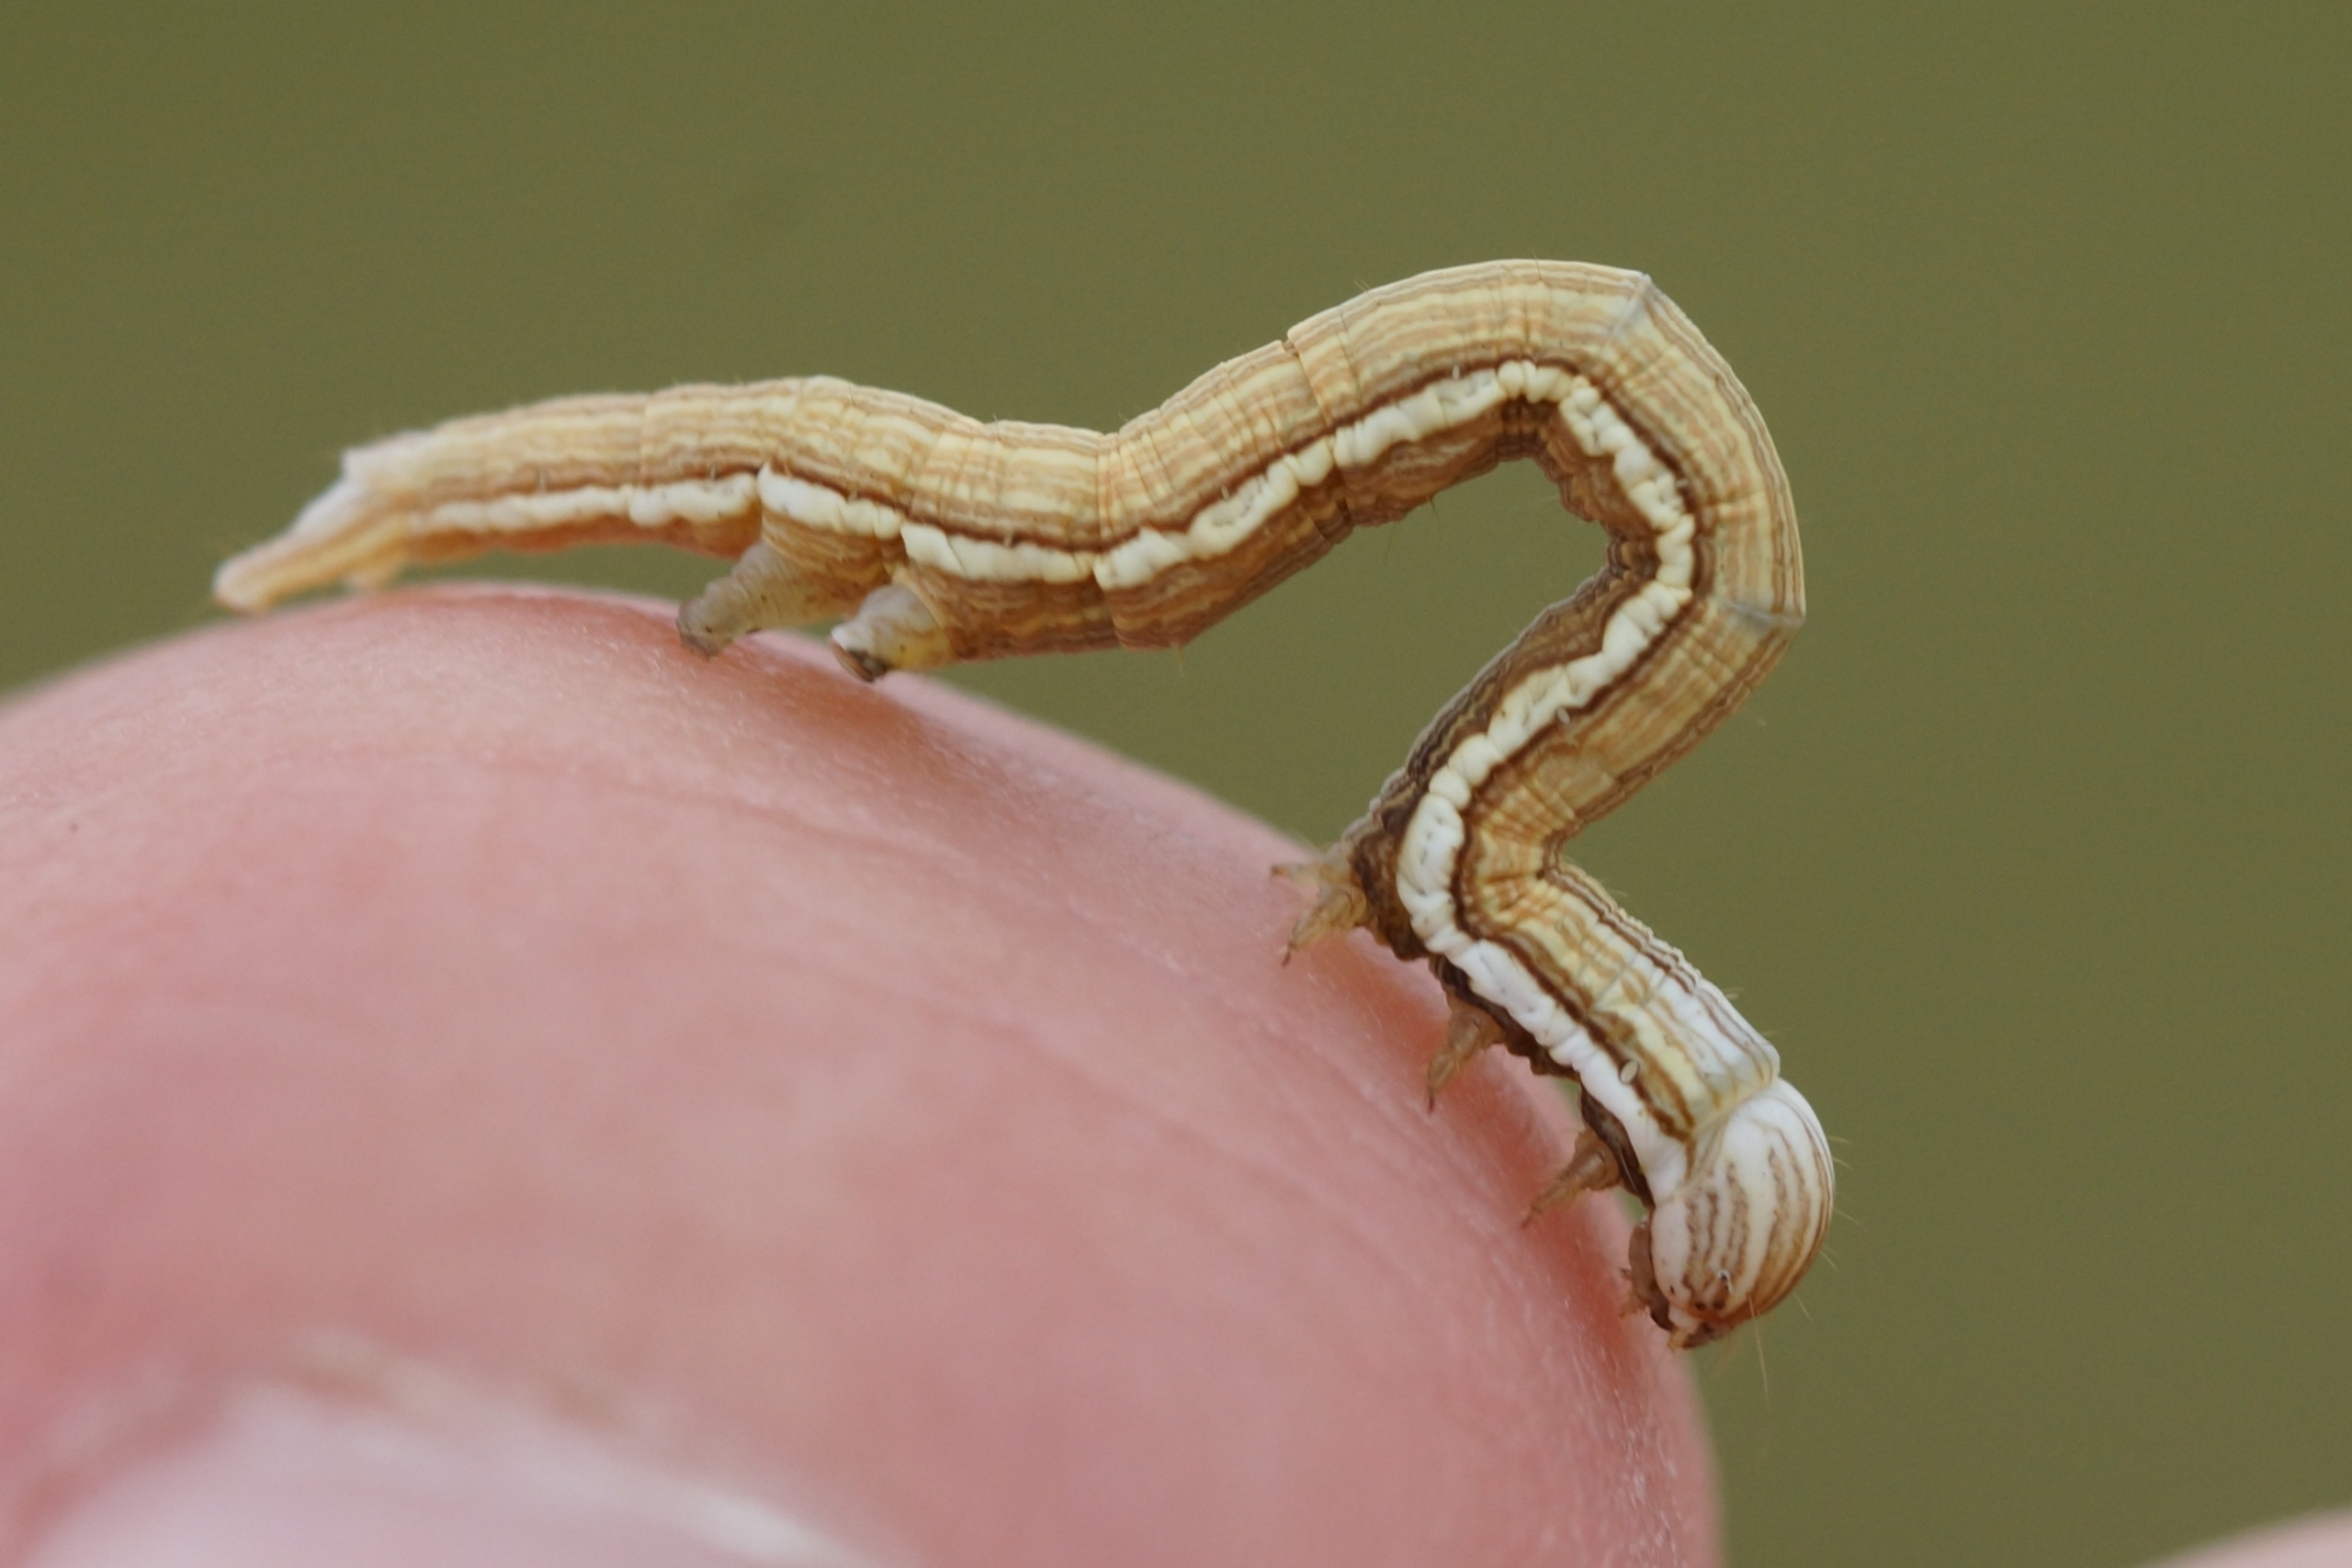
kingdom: Animalia
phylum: Arthropoda
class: Insecta
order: Lepidoptera
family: Erebidae
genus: Callistege
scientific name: Callistege mi
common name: Marmoreret kløverugle
